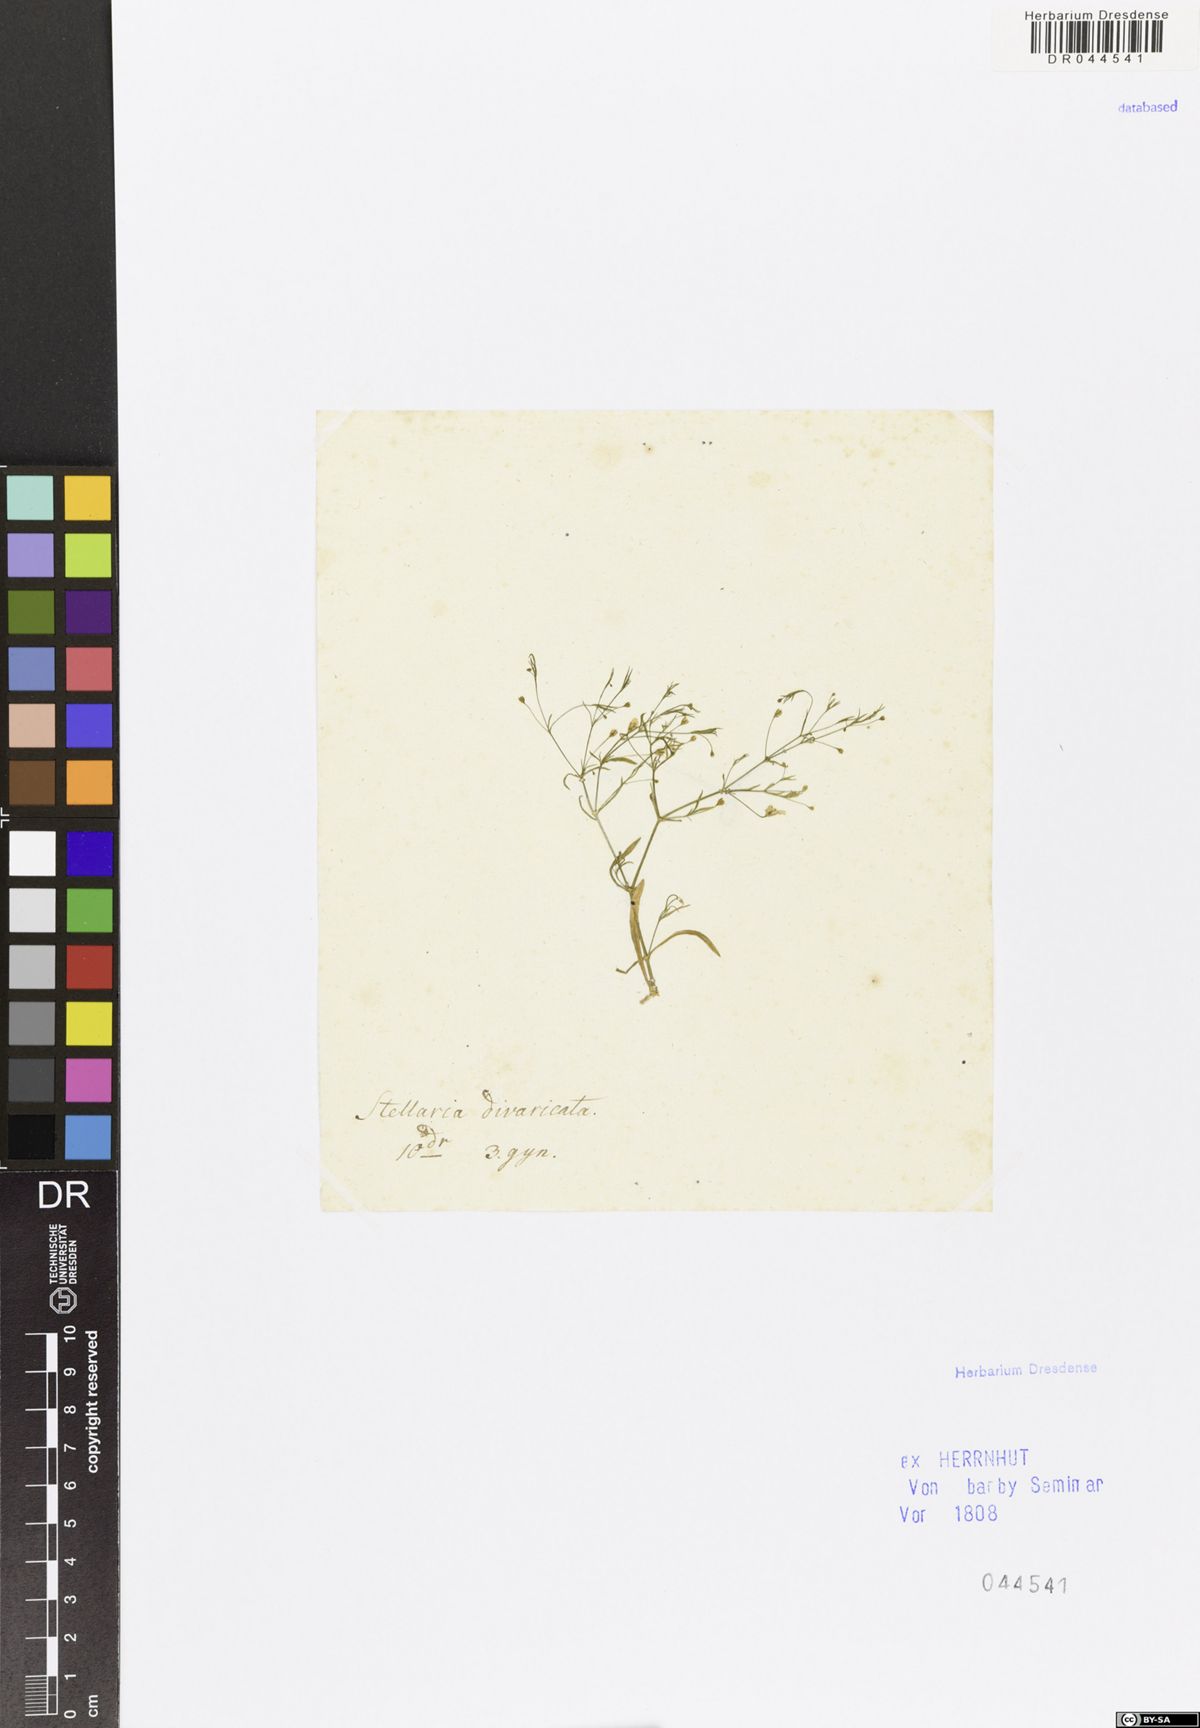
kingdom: Plantae
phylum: Tracheophyta
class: Magnoliopsida
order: Caryophyllales
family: Caryophyllaceae
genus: Stellaria
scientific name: Stellaria
